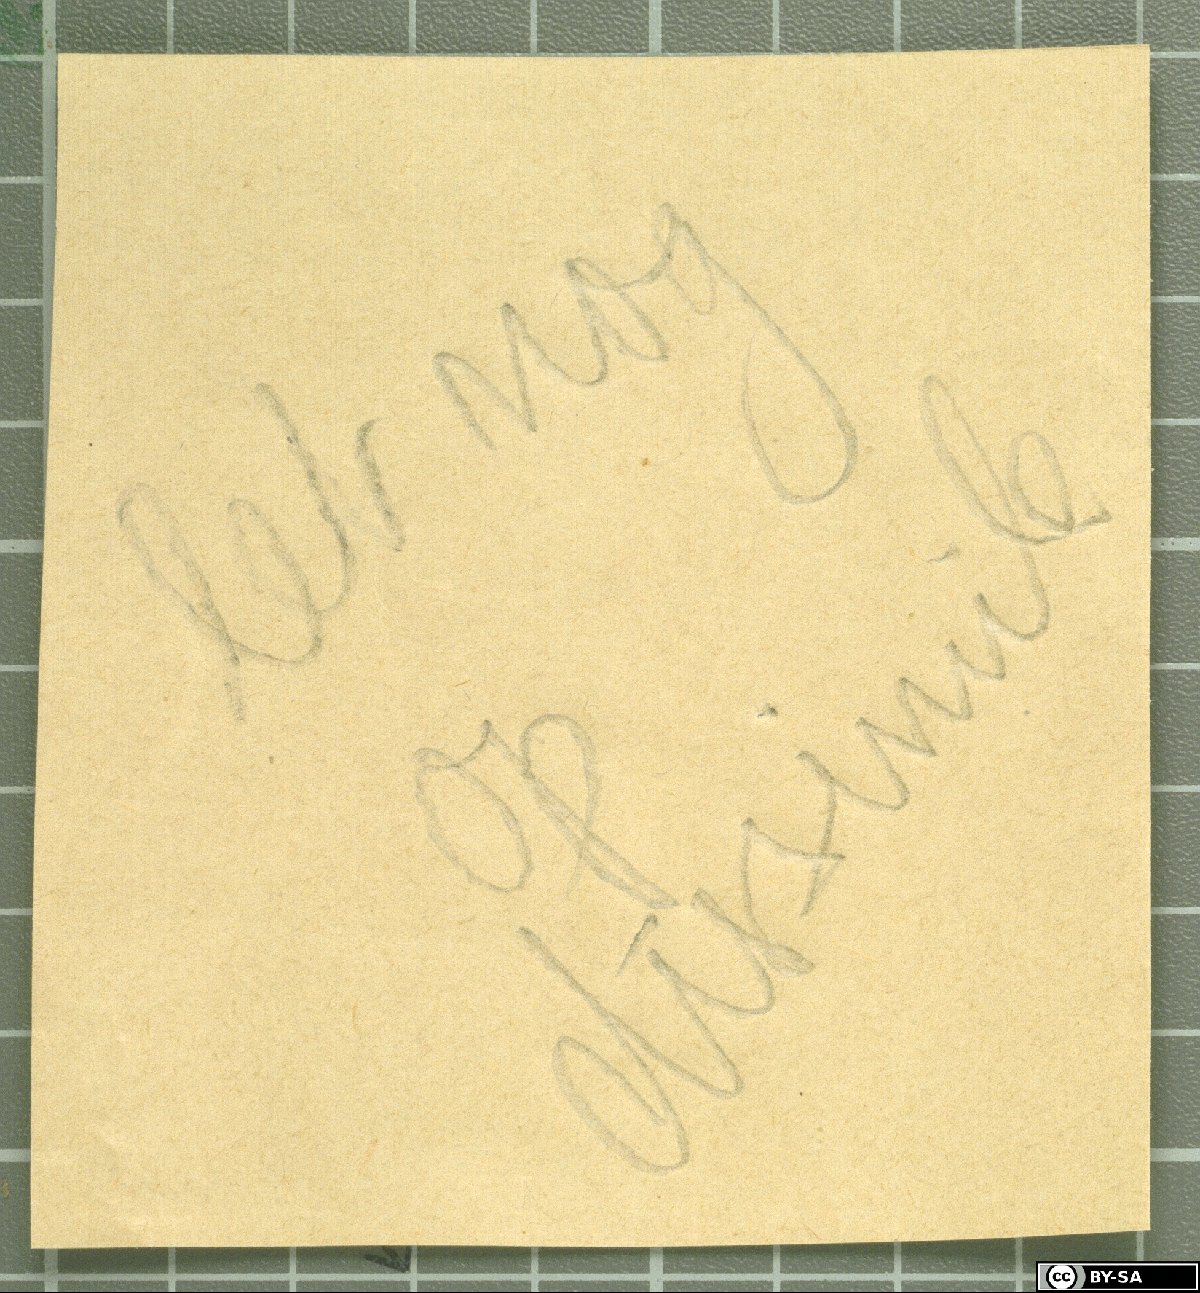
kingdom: Plantae
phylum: Tracheophyta
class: Magnoliopsida
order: Asterales
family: Asteraceae
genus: Taraxacum
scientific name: Taraxacum canophyllum
